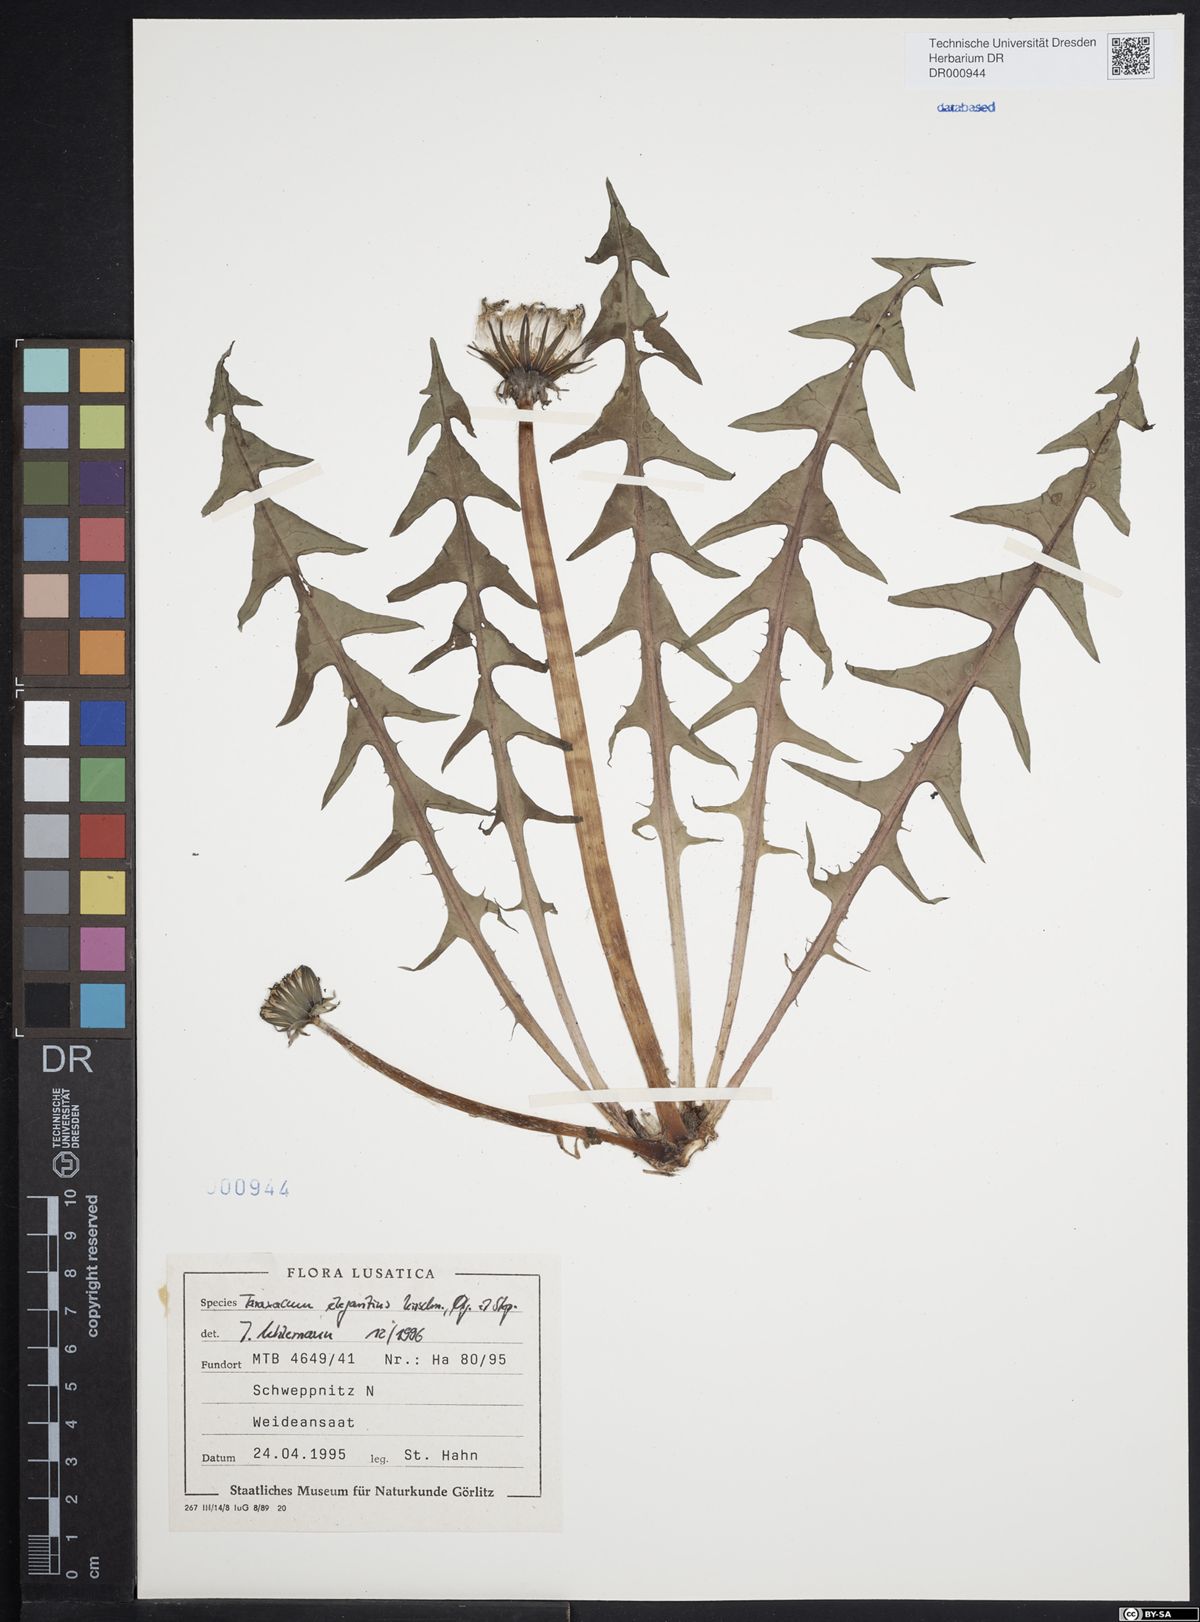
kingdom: Plantae
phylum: Tracheophyta
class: Magnoliopsida
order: Asterales
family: Asteraceae
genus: Taraxacum
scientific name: Taraxacum elegantius
